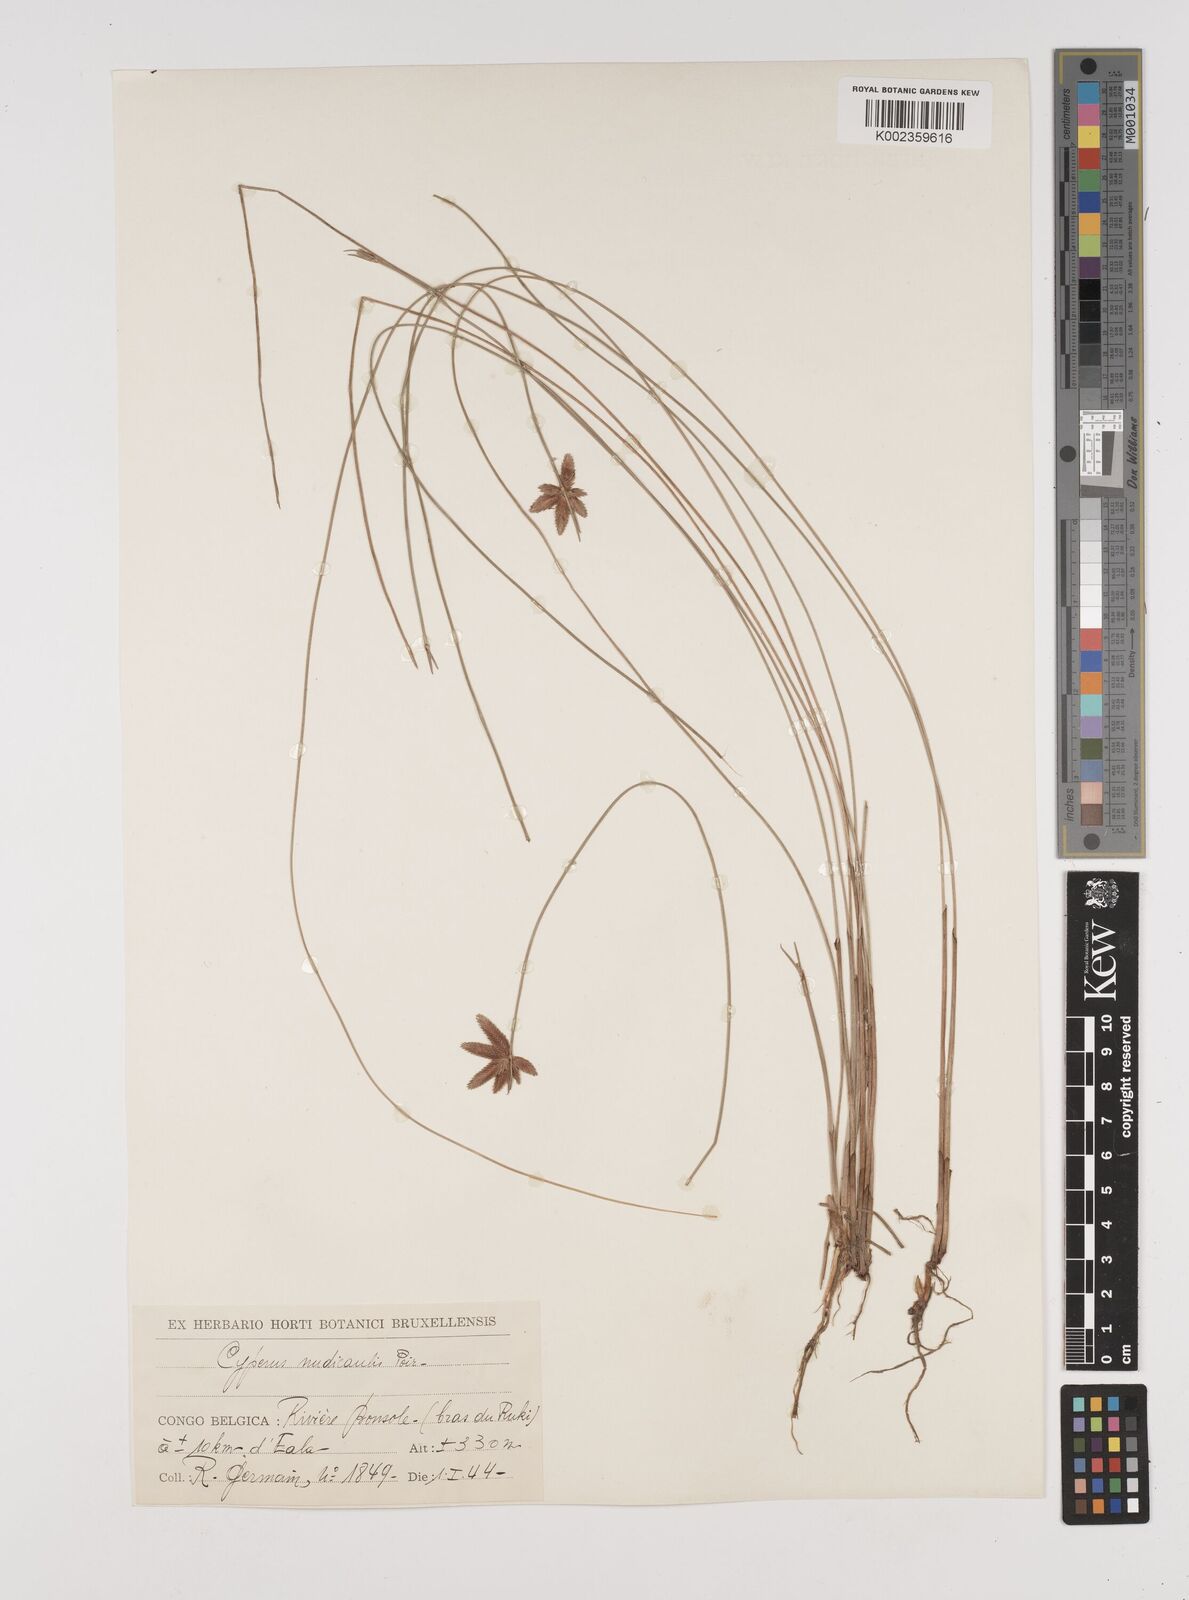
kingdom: Plantae
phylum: Tracheophyta
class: Liliopsida
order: Poales
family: Cyperaceae
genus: Cyperus
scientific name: Cyperus pectinatus
